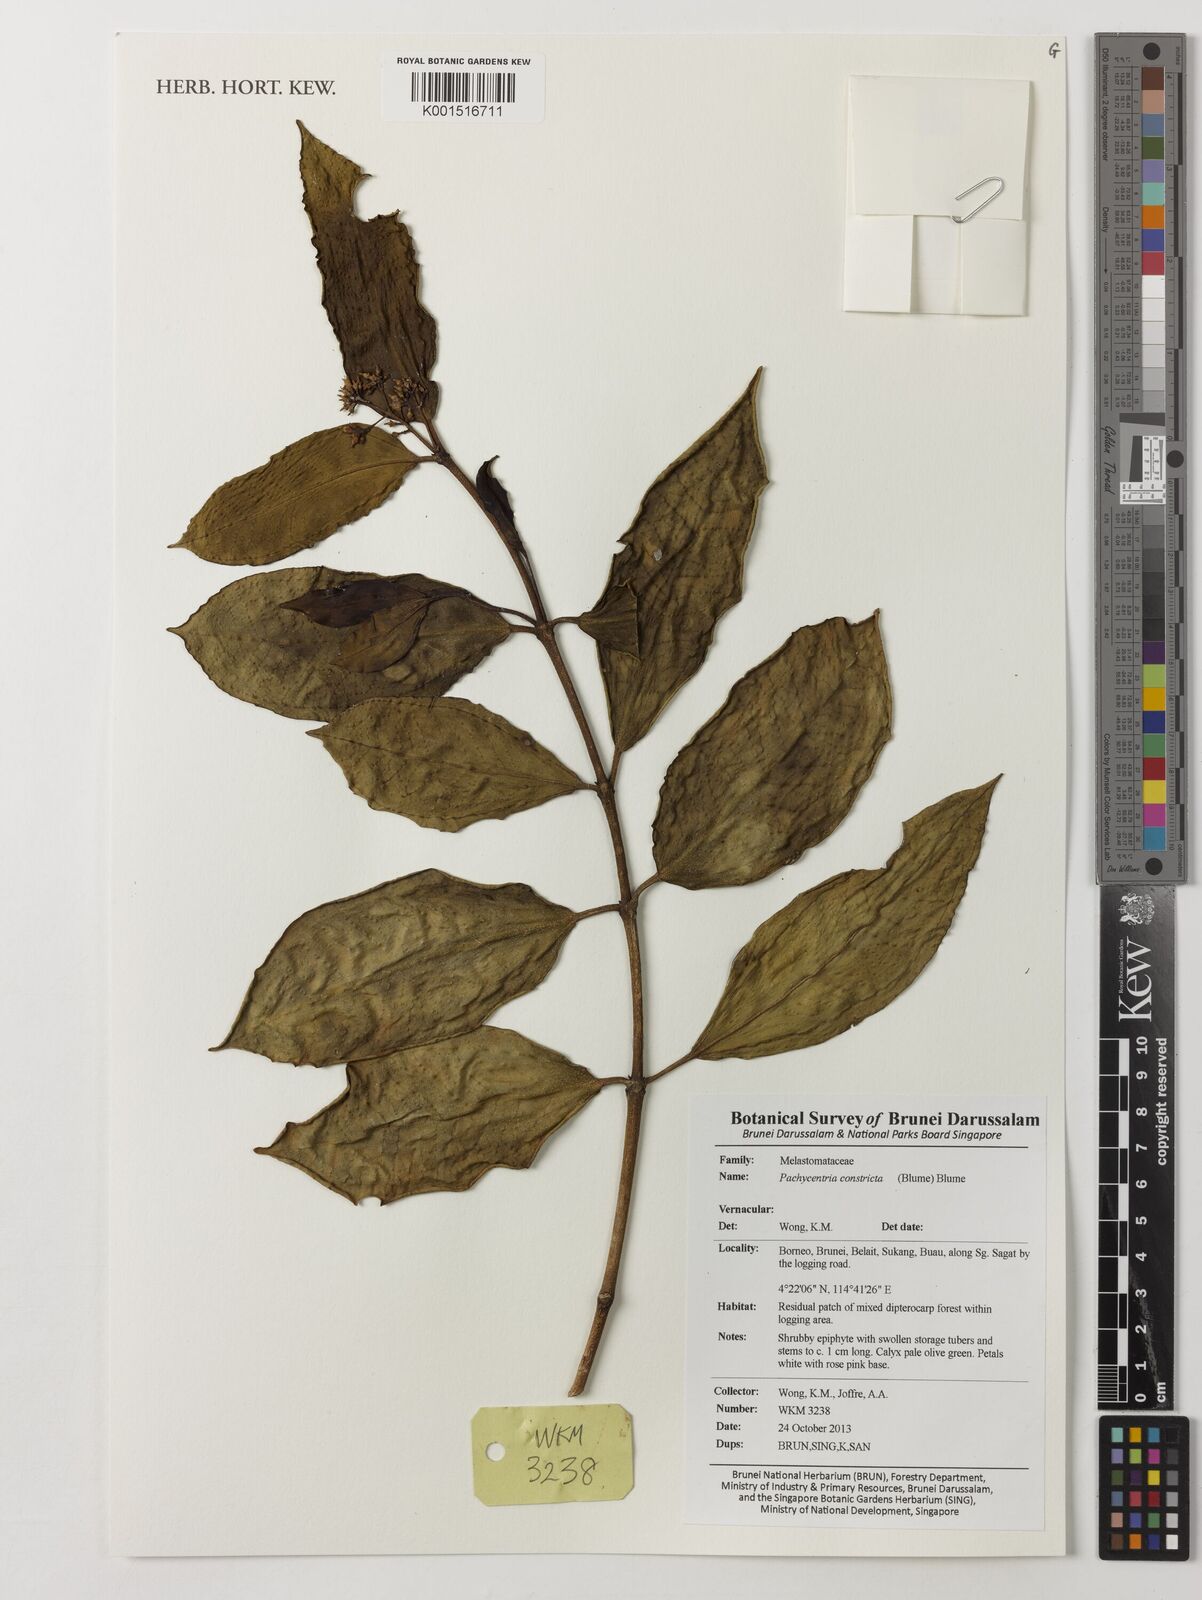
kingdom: Plantae
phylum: Tracheophyta
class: Magnoliopsida
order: Myrtales
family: Melastomataceae
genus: Pachycentria
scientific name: Pachycentria constricta
